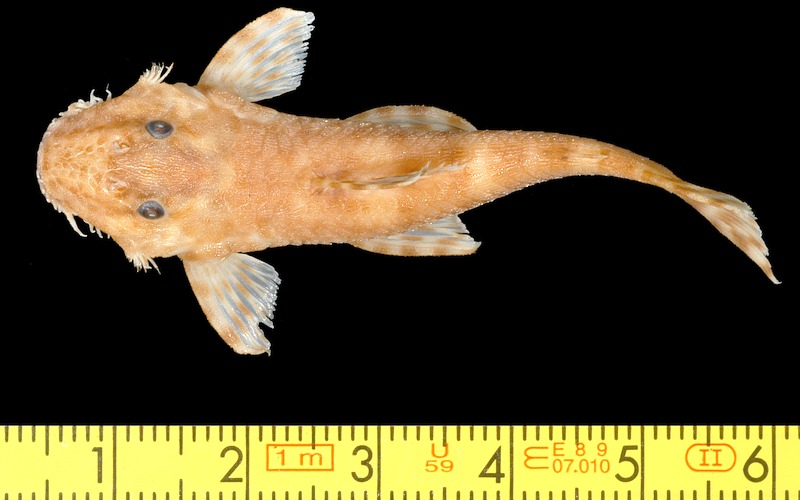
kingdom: Animalia
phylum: Chordata
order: Siluriformes
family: Loricariidae
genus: Exastilithoxus
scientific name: Exastilithoxus hoedemani
